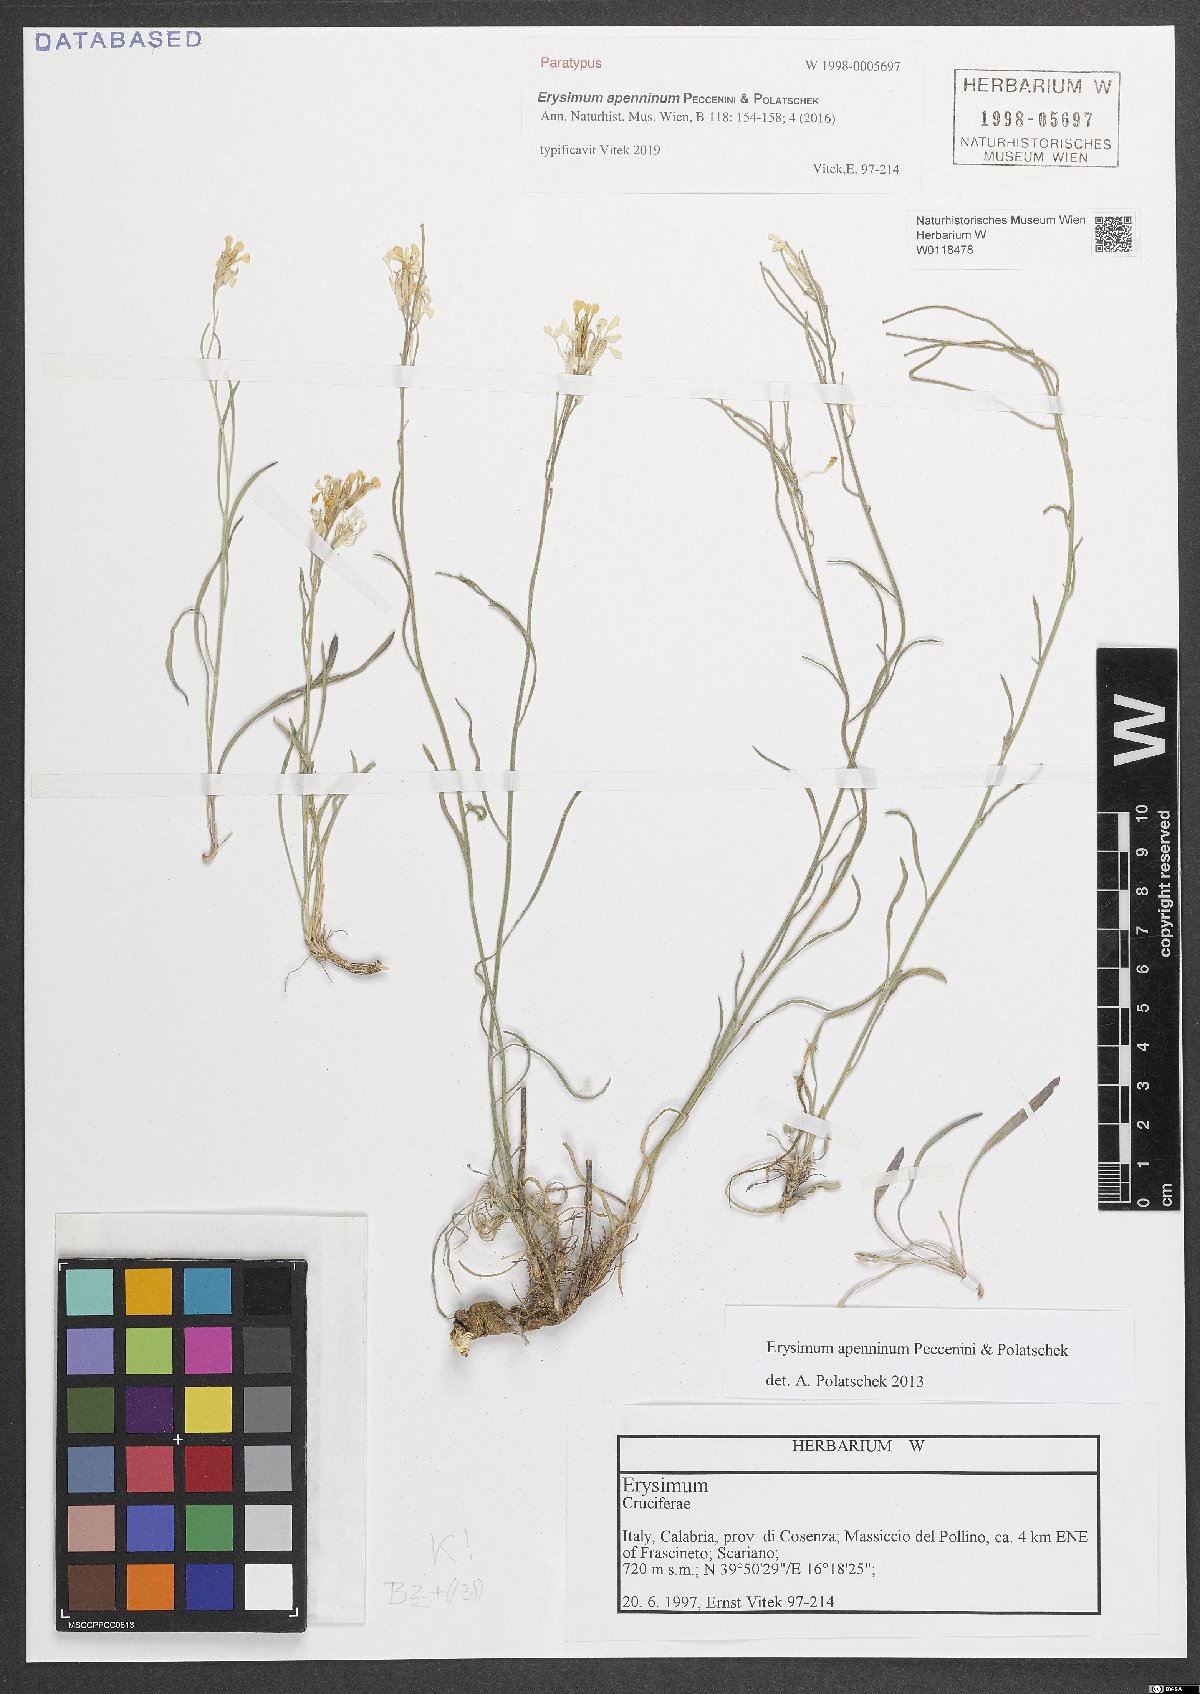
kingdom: Plantae
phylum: Tracheophyta
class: Magnoliopsida
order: Brassicales
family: Brassicaceae
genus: Erysimum
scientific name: Erysimum apenninum
